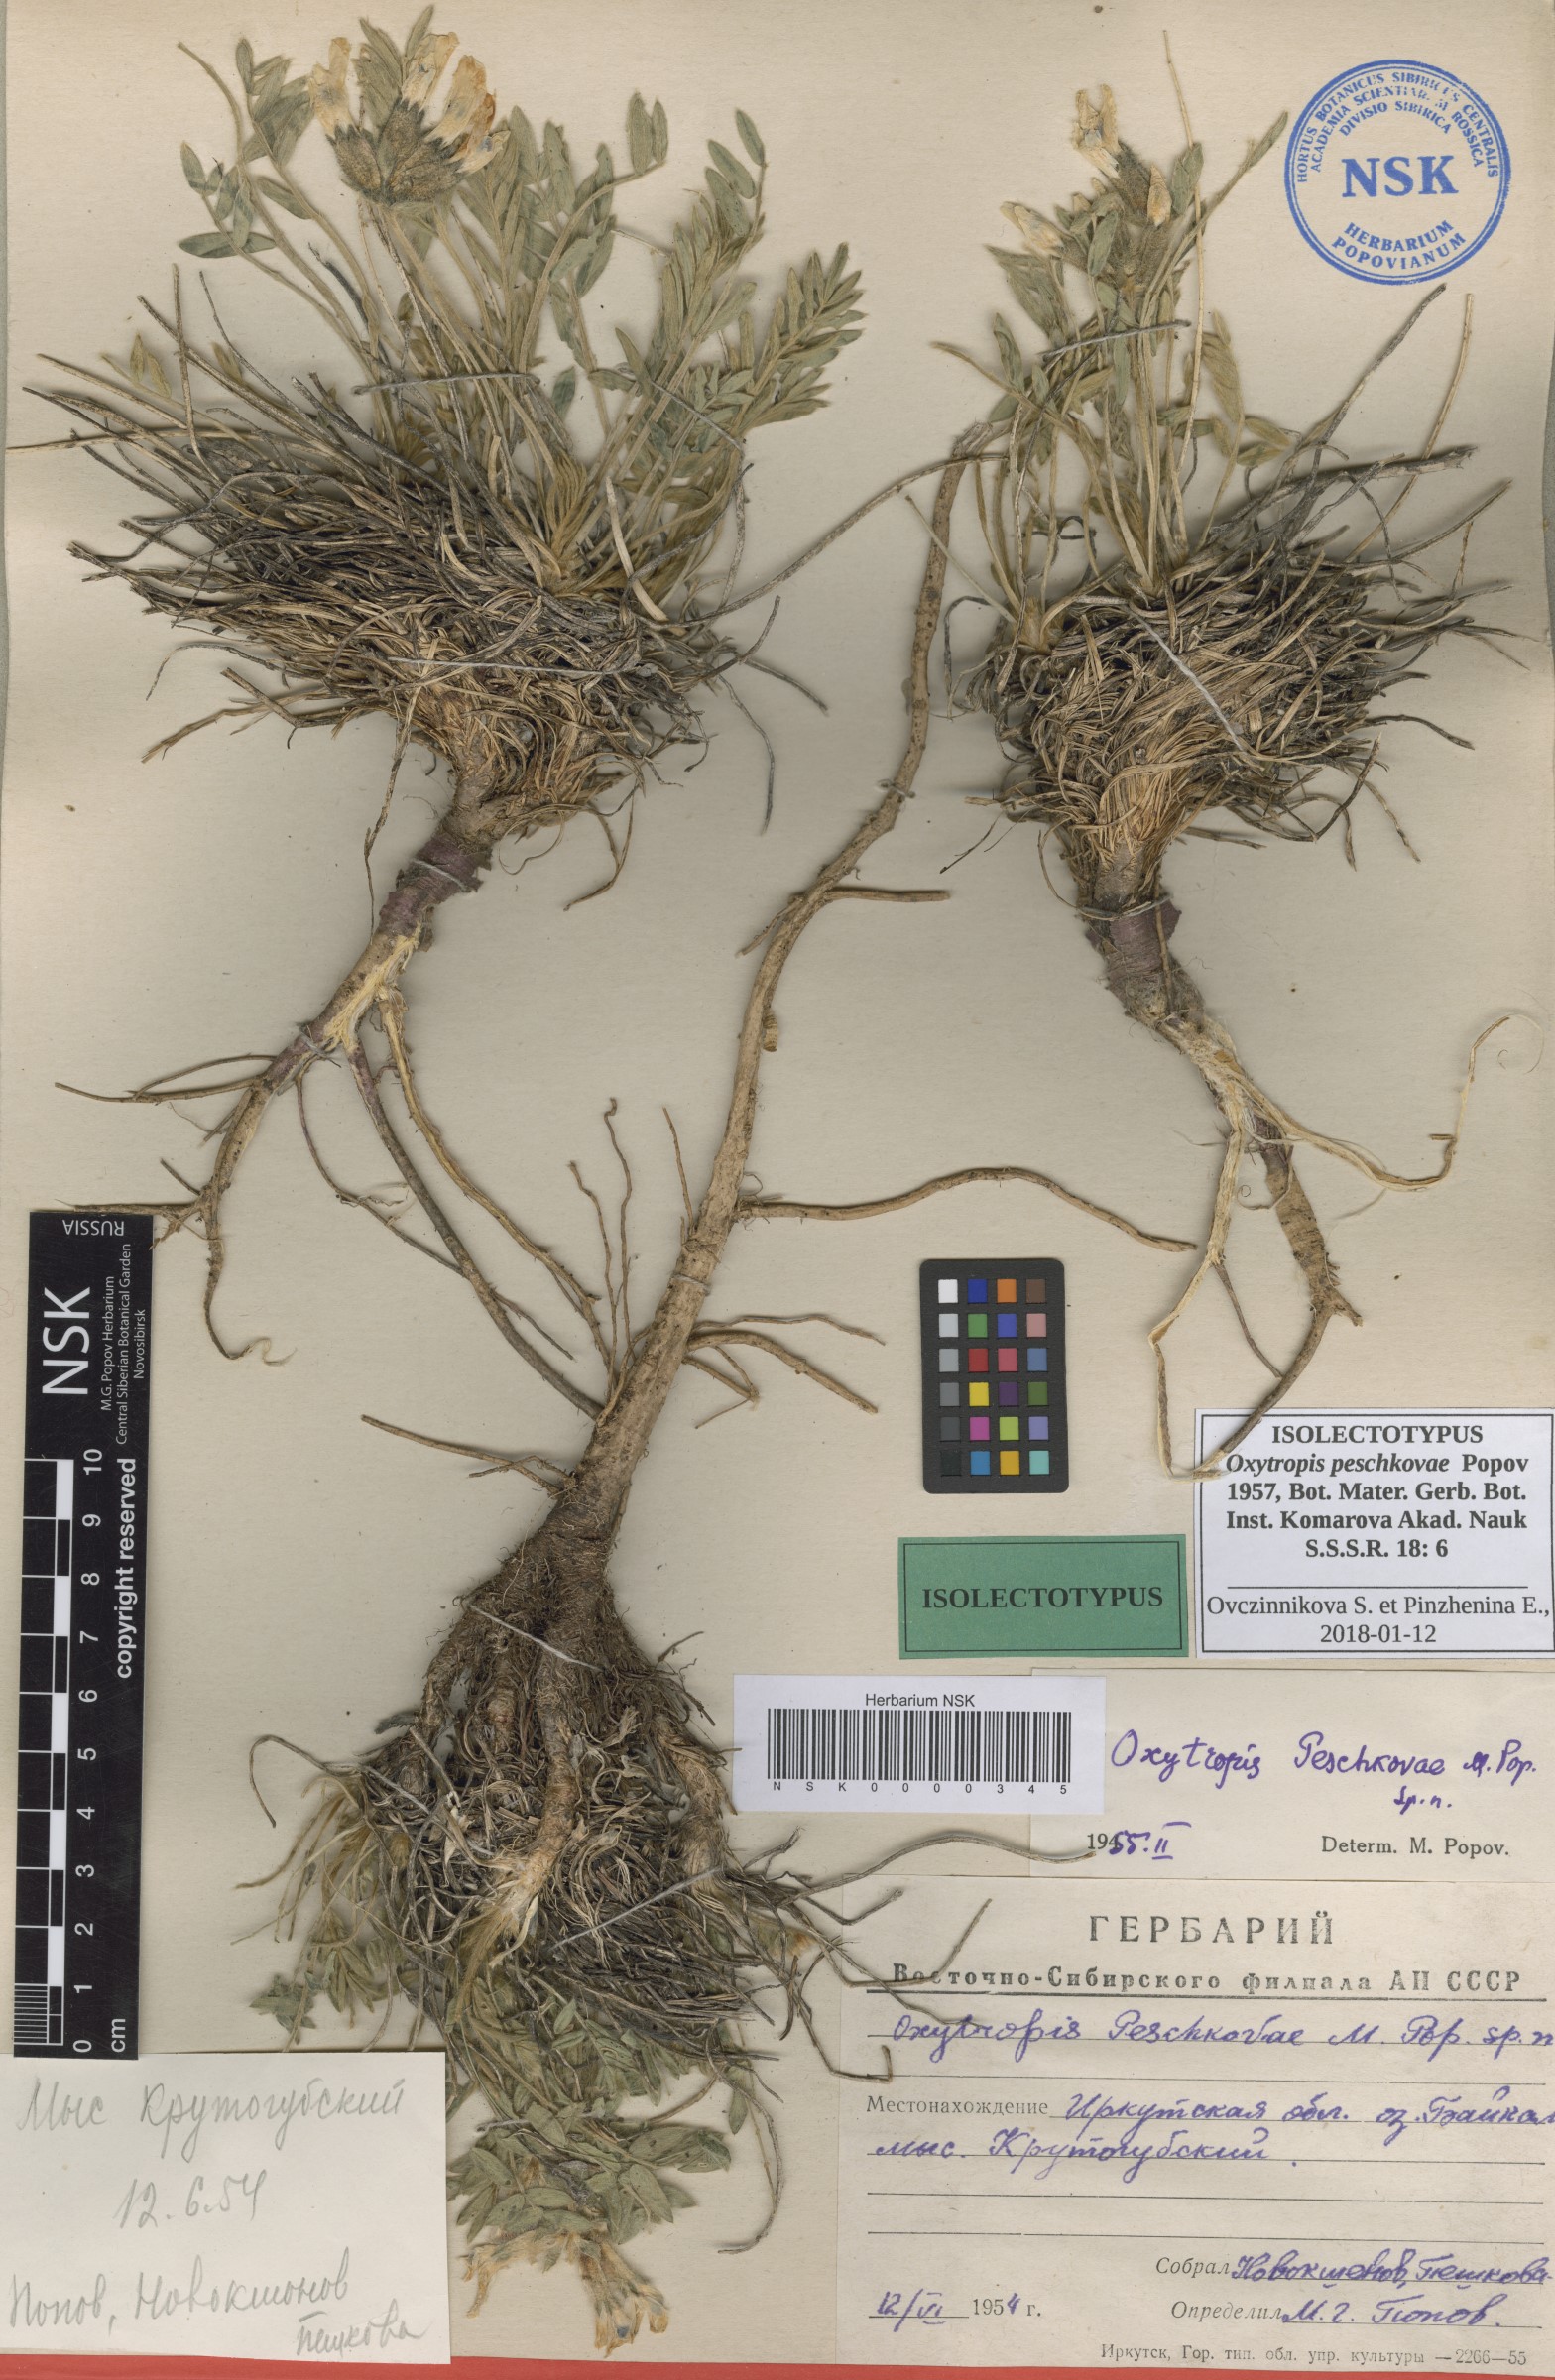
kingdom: Plantae
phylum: Tracheophyta
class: Magnoliopsida
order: Fabales
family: Fabaceae
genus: Oxytropis
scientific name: Oxytropis peschkovae
